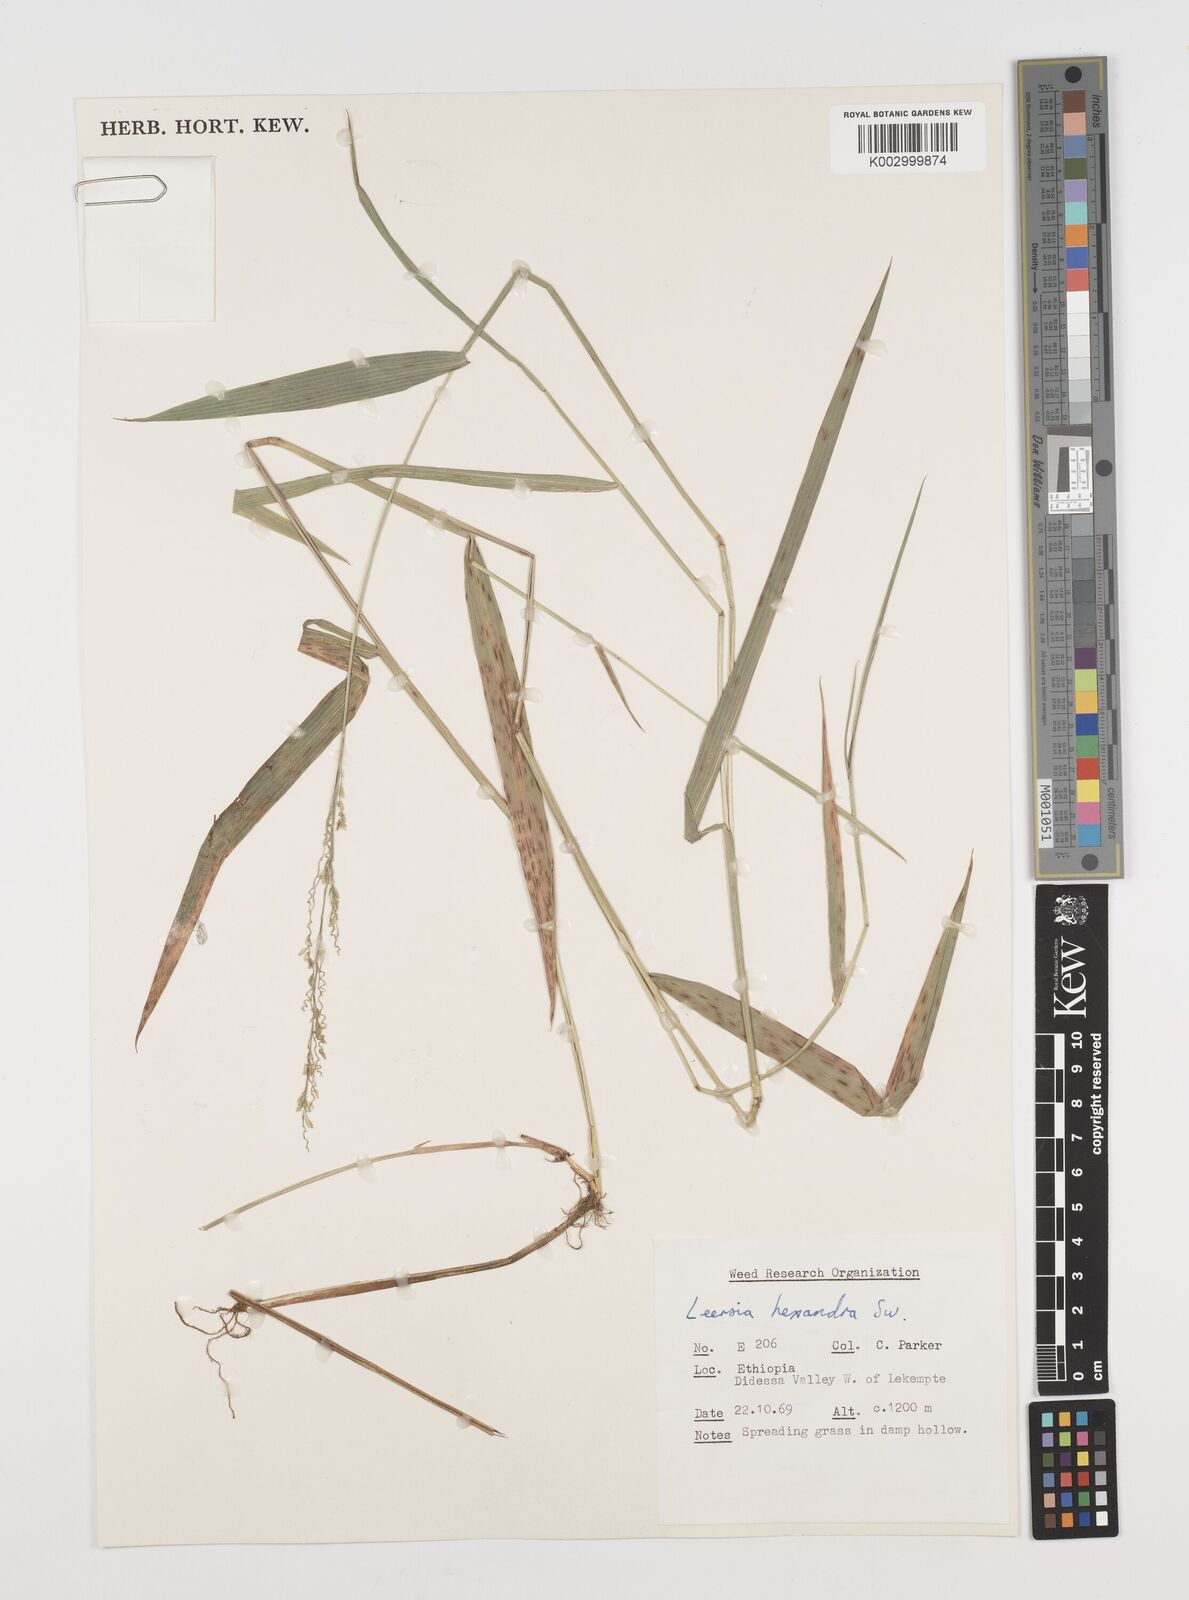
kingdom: Plantae
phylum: Tracheophyta
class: Liliopsida
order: Poales
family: Poaceae
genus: Leersia
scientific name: Leersia hexandra
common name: Southern cut grass
